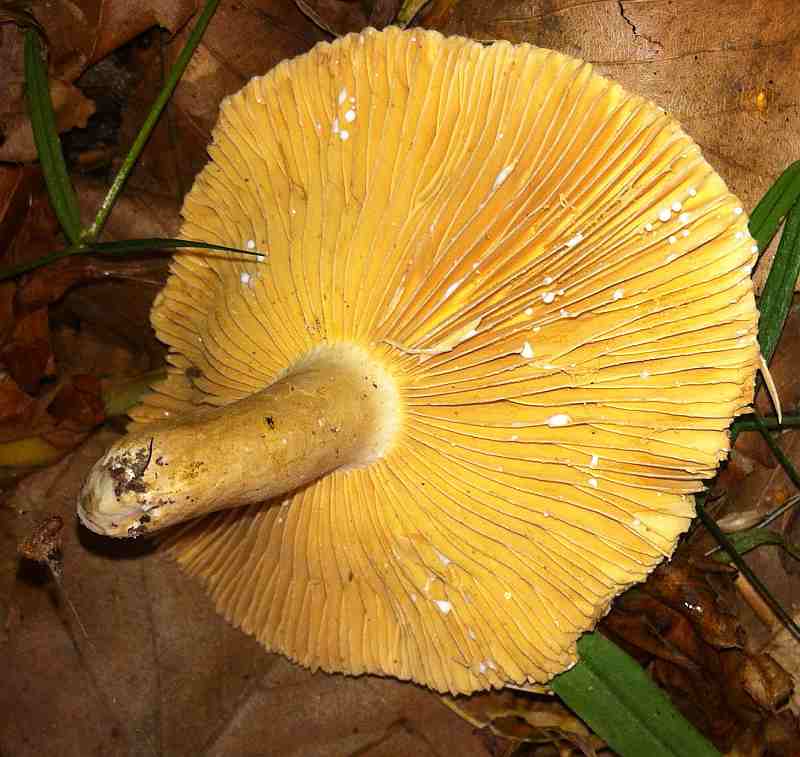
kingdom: Fungi
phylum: Basidiomycota
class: Agaricomycetes
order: Russulales
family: Russulaceae
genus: Lactarius
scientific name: Lactarius romagnesii
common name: fjernbladet mælkehat
